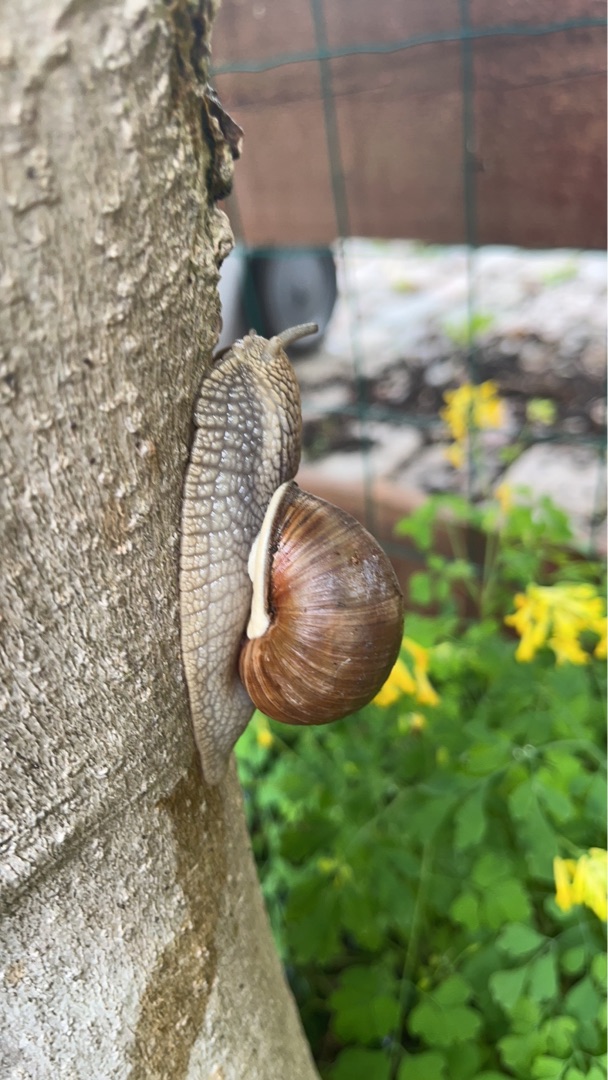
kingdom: Animalia
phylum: Mollusca
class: Gastropoda
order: Stylommatophora
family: Helicidae
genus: Helix
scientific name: Helix pomatia
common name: Vinbjergsnegl
